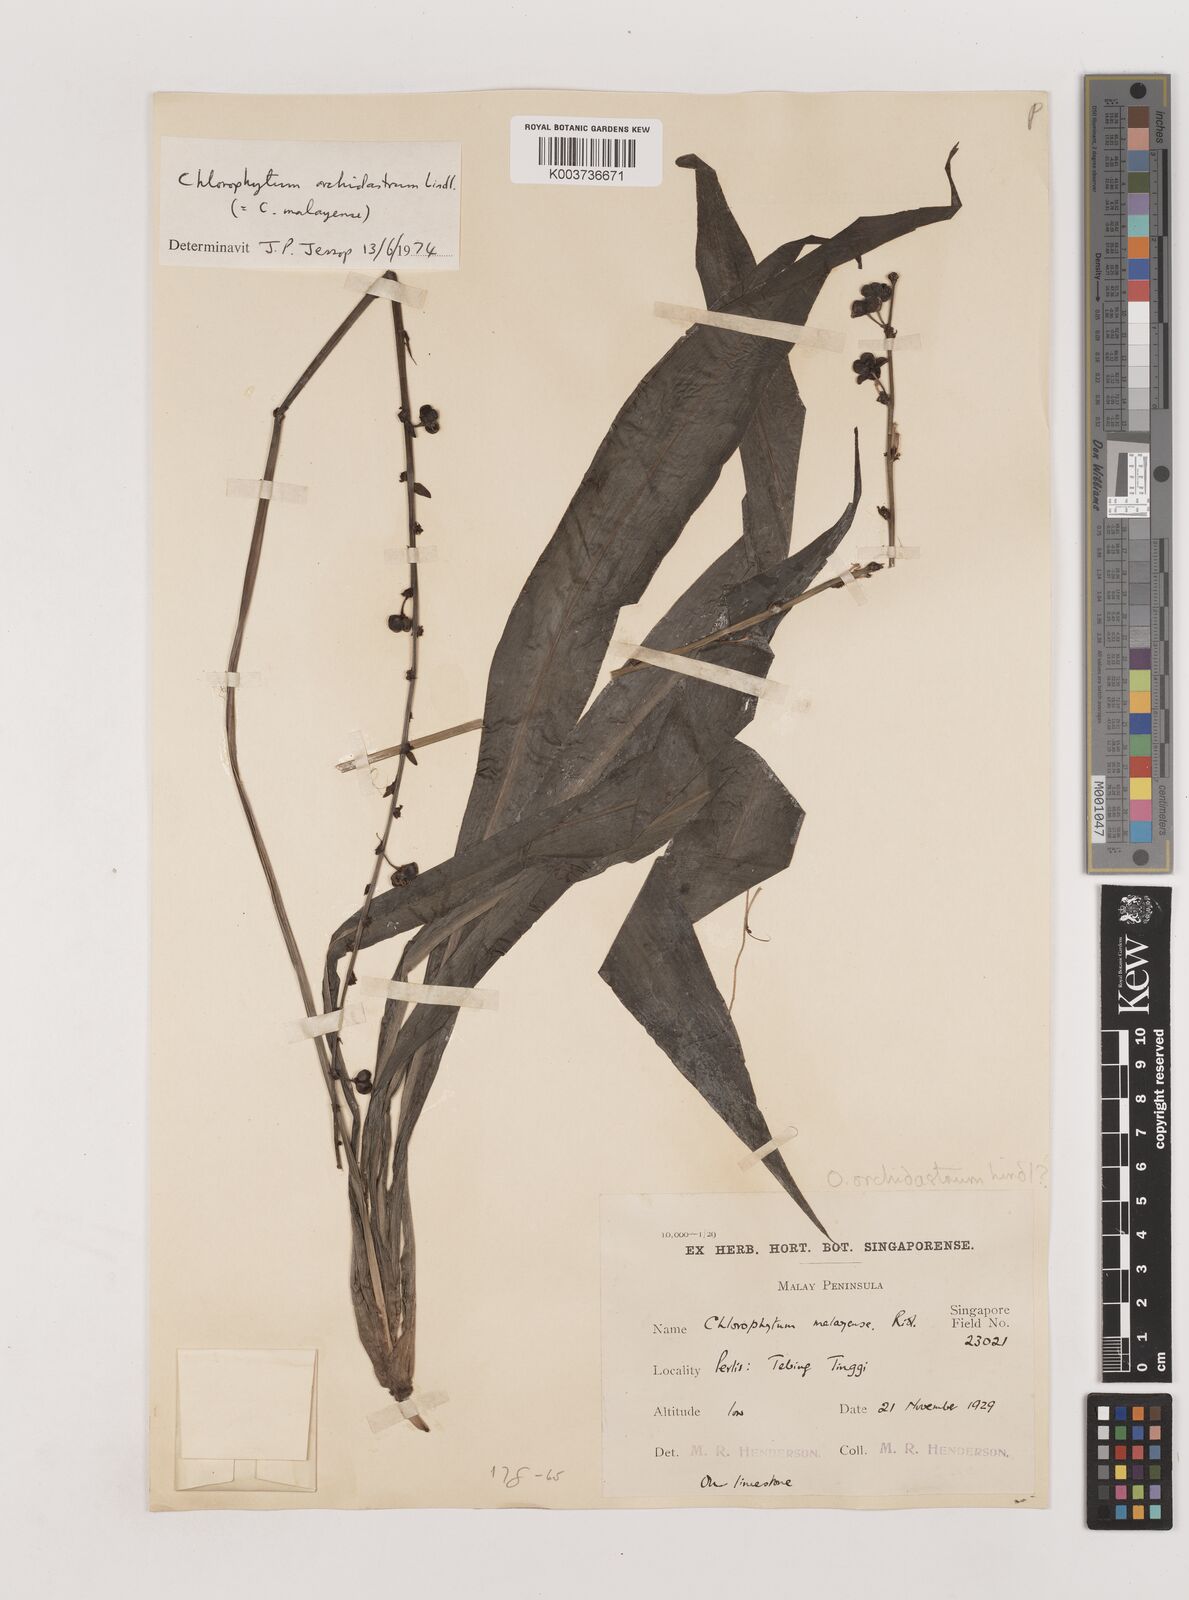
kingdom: Plantae
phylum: Tracheophyta
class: Liliopsida
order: Asparagales
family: Asparagaceae
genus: Chlorophytum
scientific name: Chlorophytum malayense
